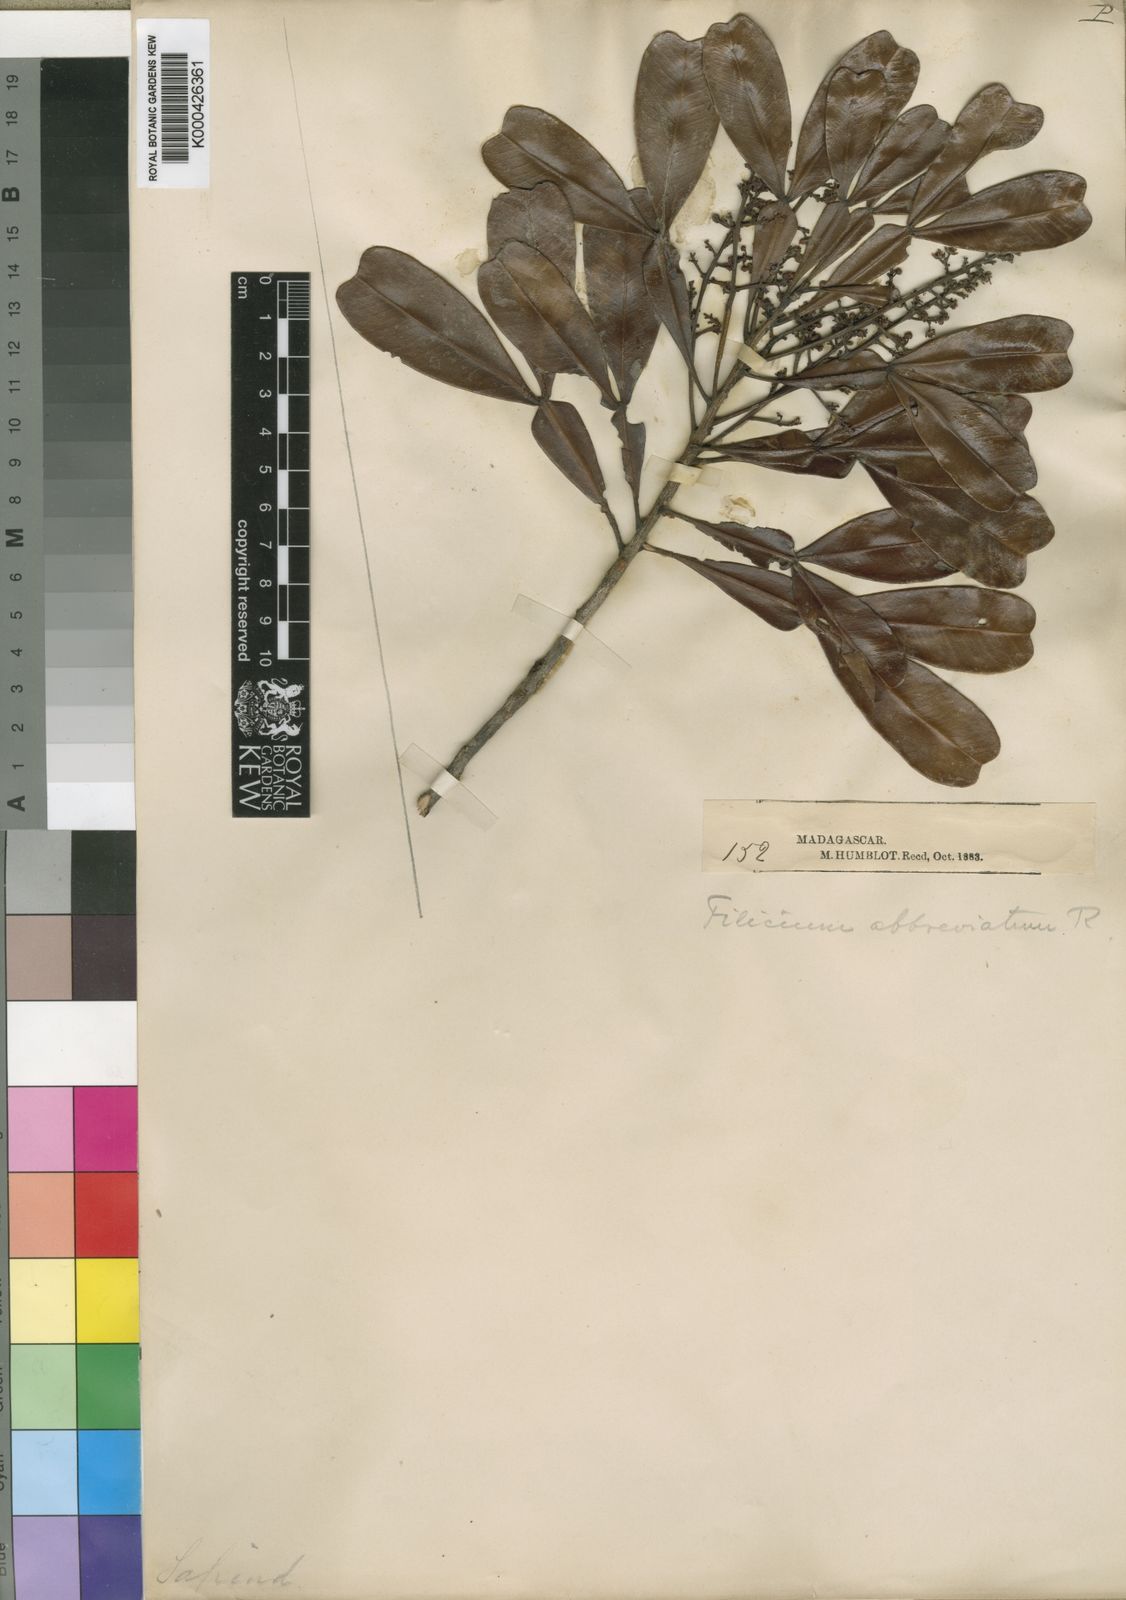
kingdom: Plantae
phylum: Tracheophyta
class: Magnoliopsida
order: Sapindales
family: Sapindaceae
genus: Filicium
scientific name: Filicium thouarsianum
